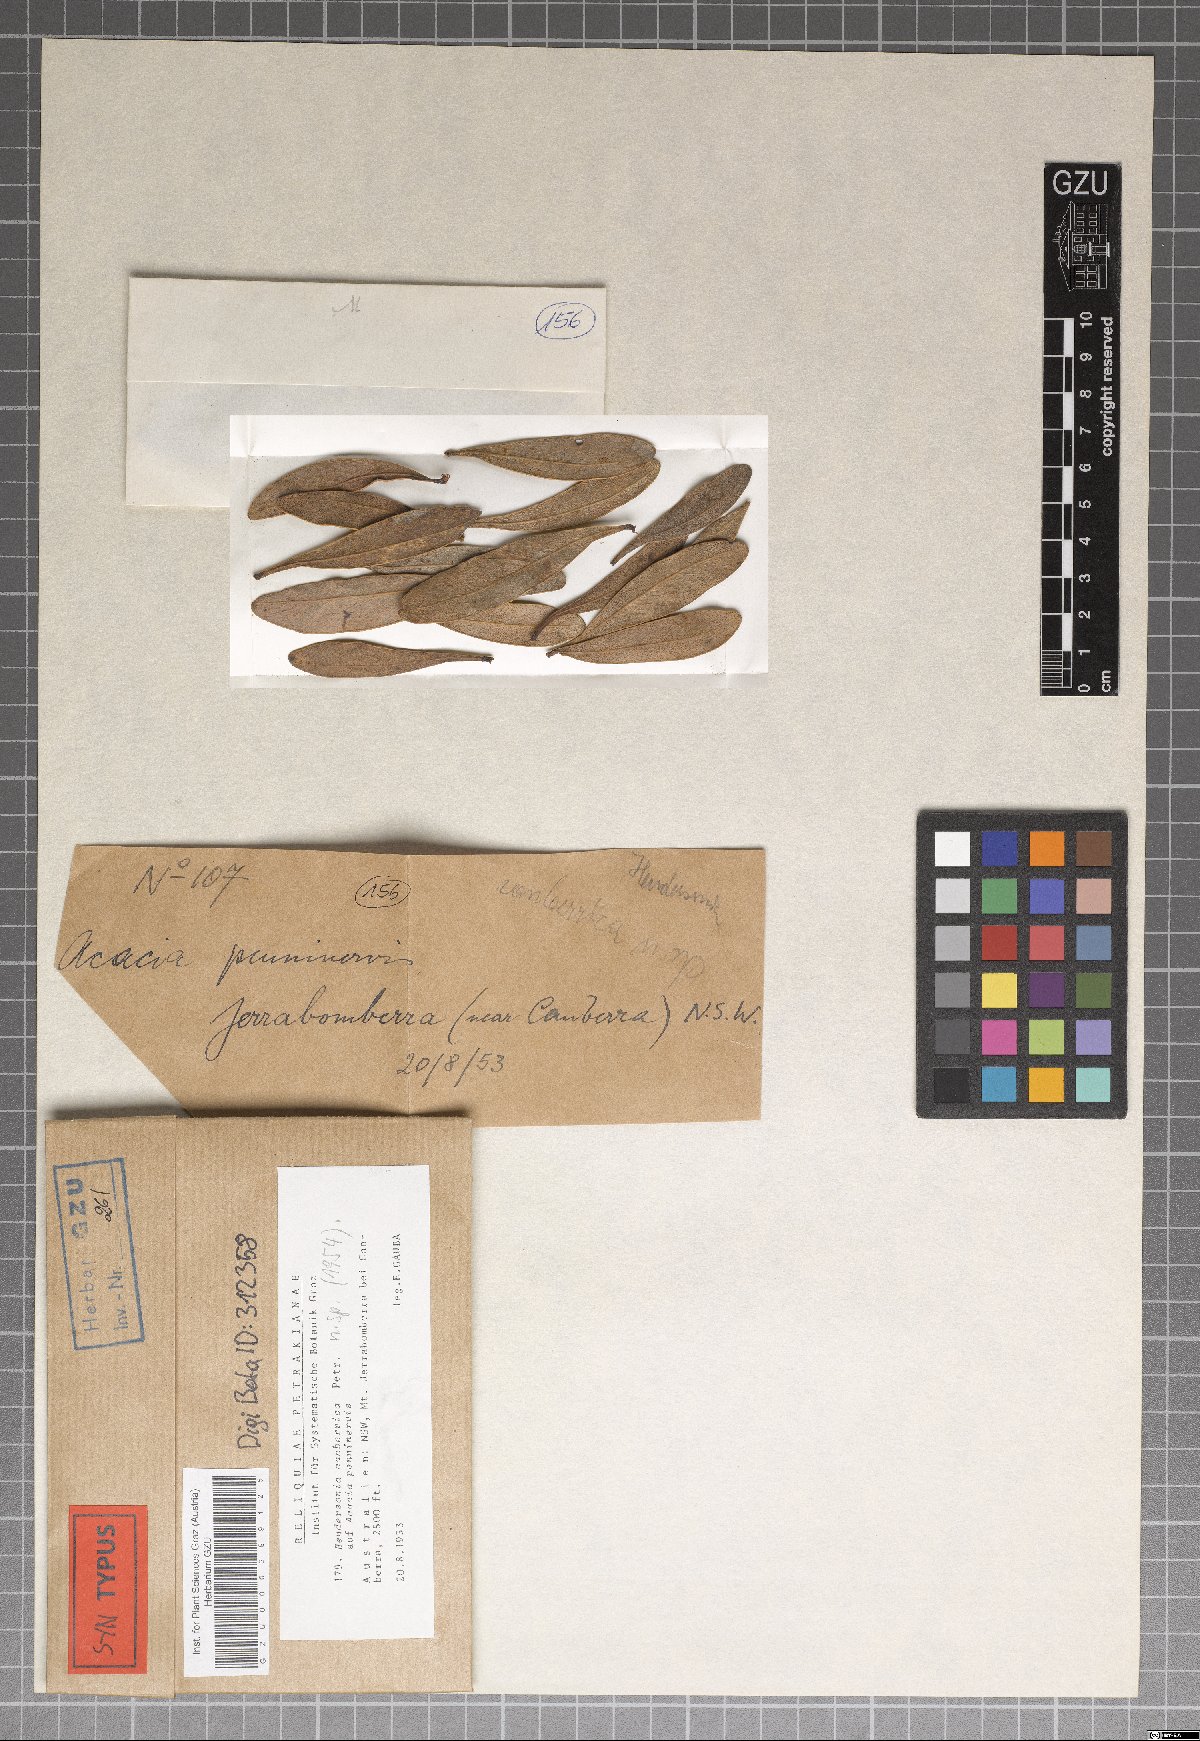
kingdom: Fungi
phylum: Ascomycota
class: Dothideomycetes
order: Pleosporales
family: Phaeosphaeriaceae
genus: Hendersonia
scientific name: Hendersonia canberrica
